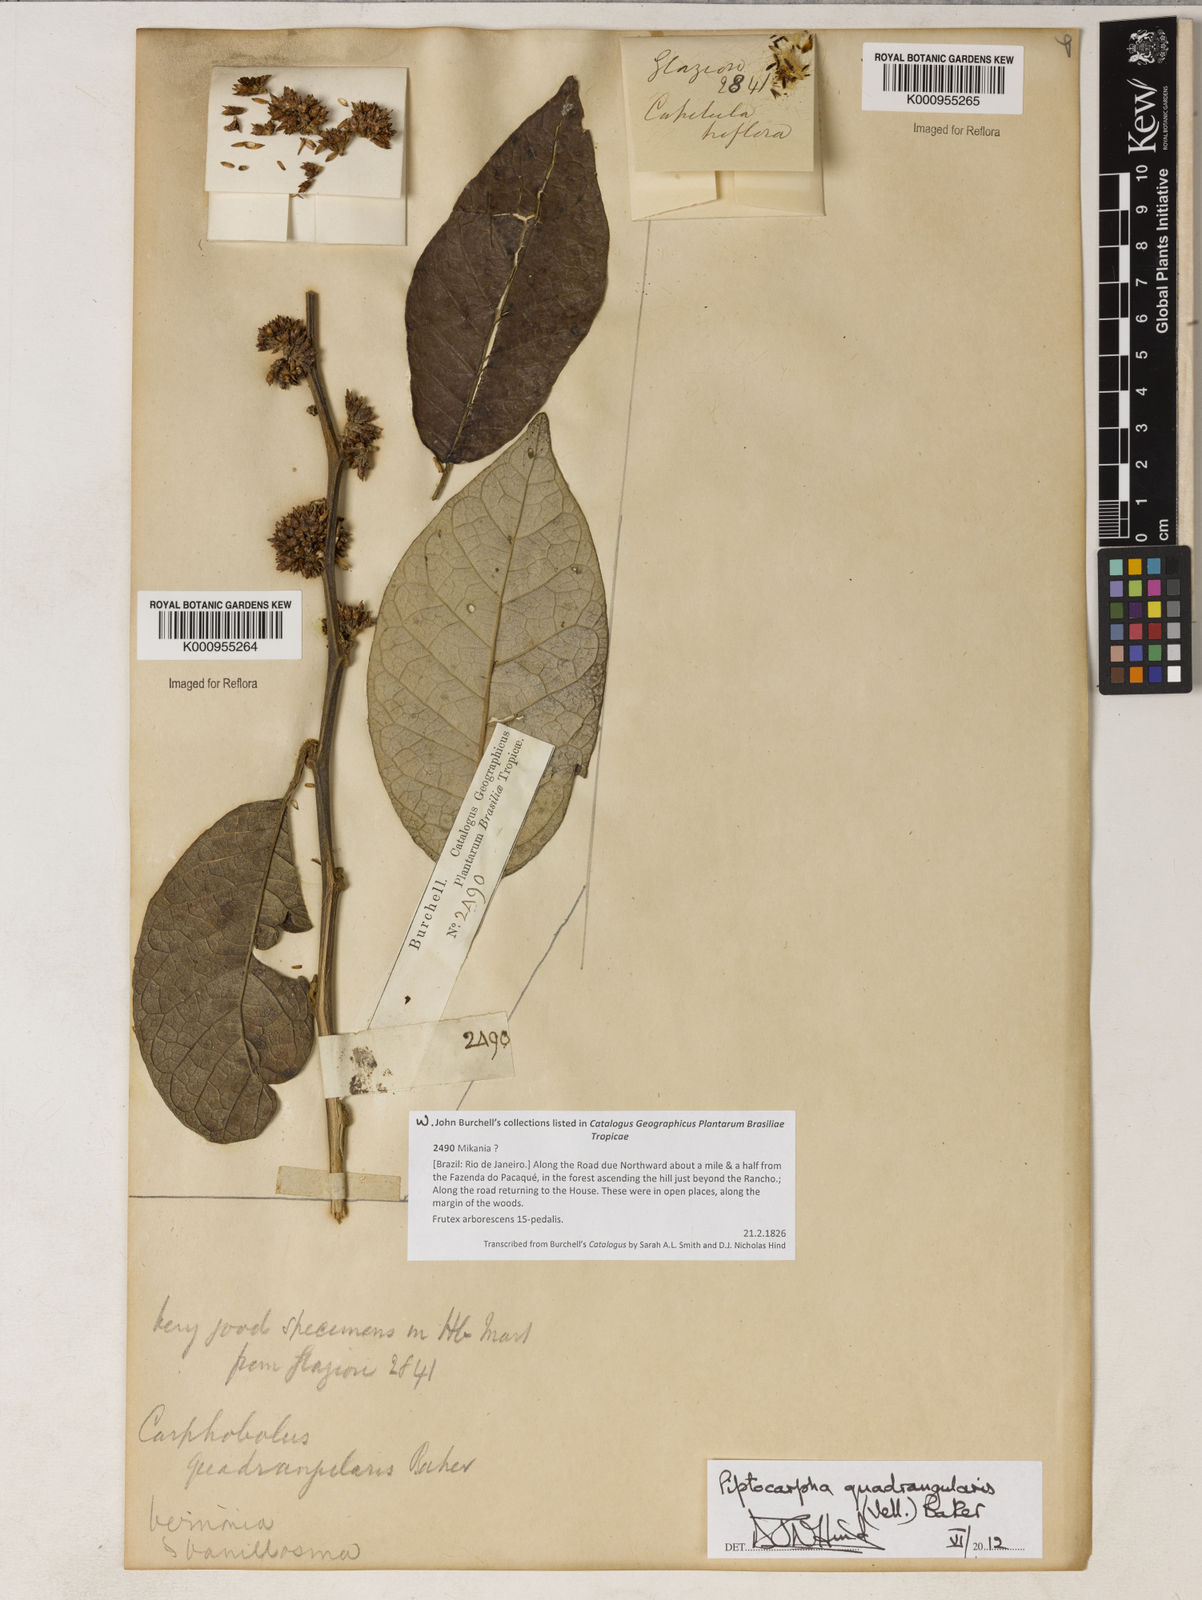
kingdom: Plantae
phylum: Tracheophyta
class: Magnoliopsida
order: Asterales
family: Asteraceae
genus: Piptocarpha
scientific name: Piptocarpha quadrangularis
